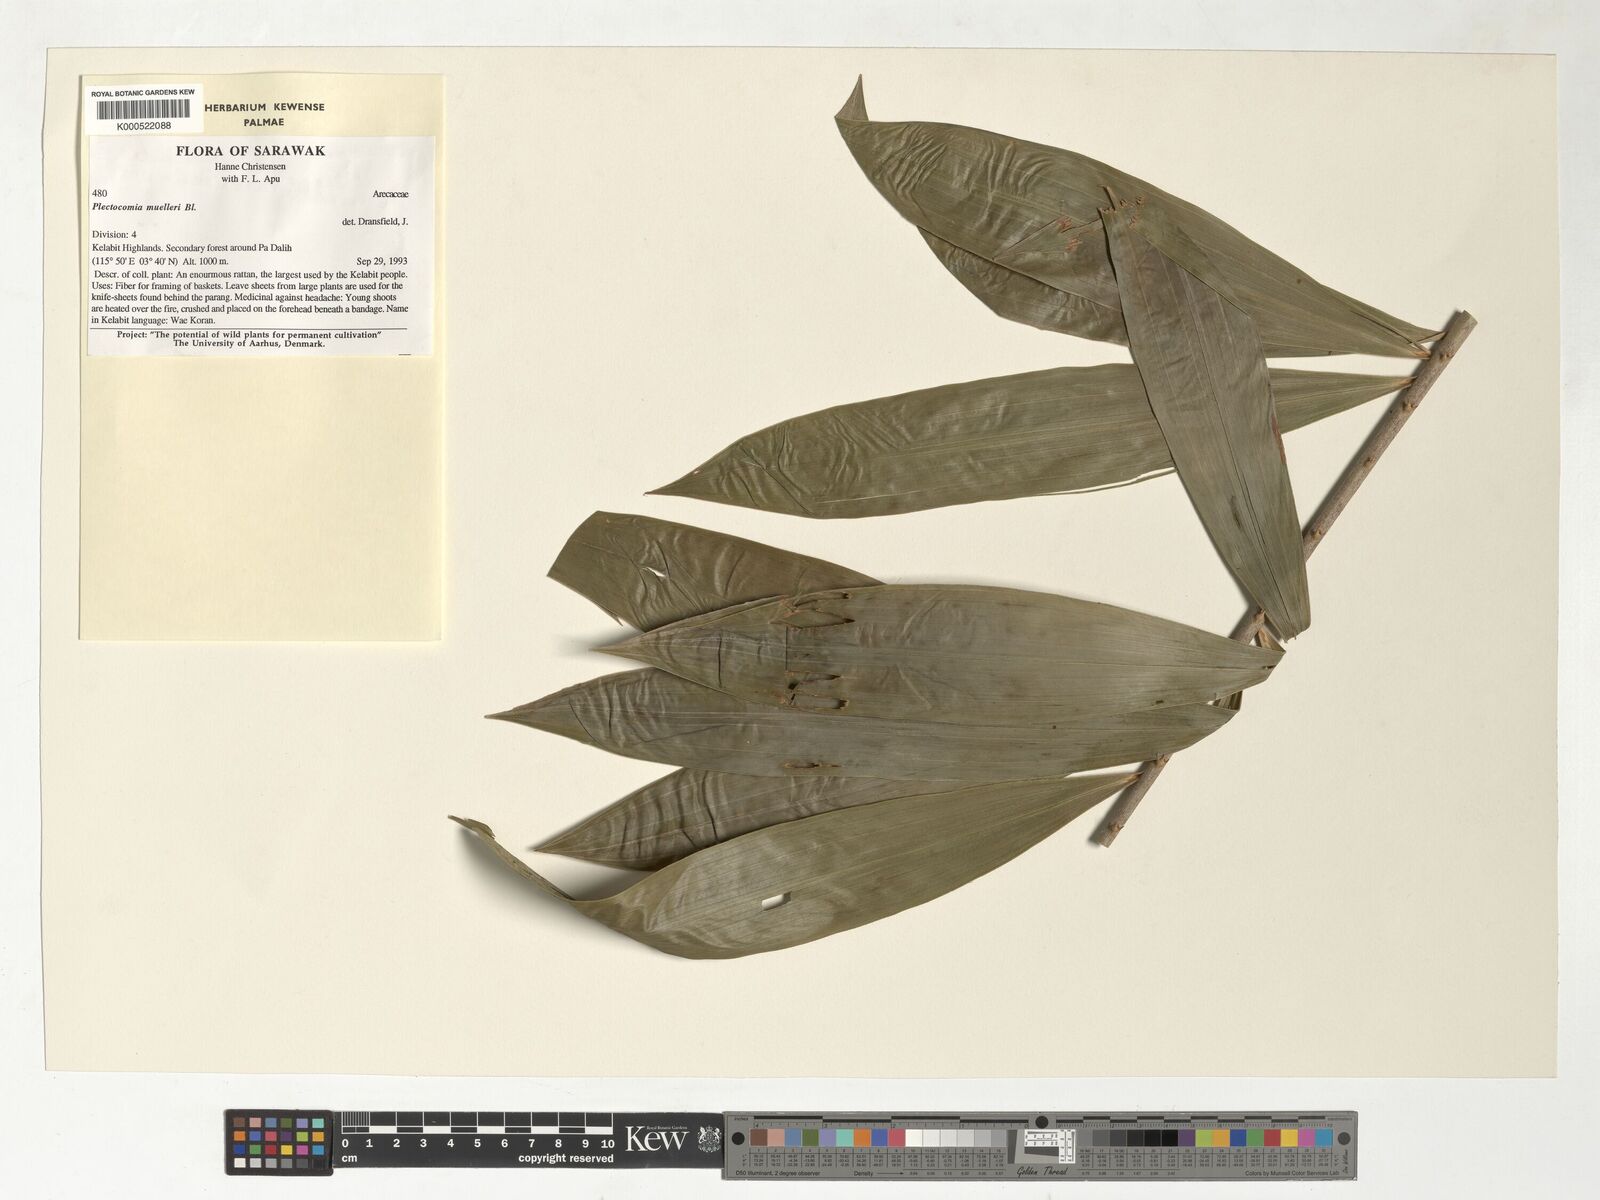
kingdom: Plantae
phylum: Tracheophyta
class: Liliopsida
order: Arecales
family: Arecaceae
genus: Plectocomia
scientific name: Plectocomia mulleri
